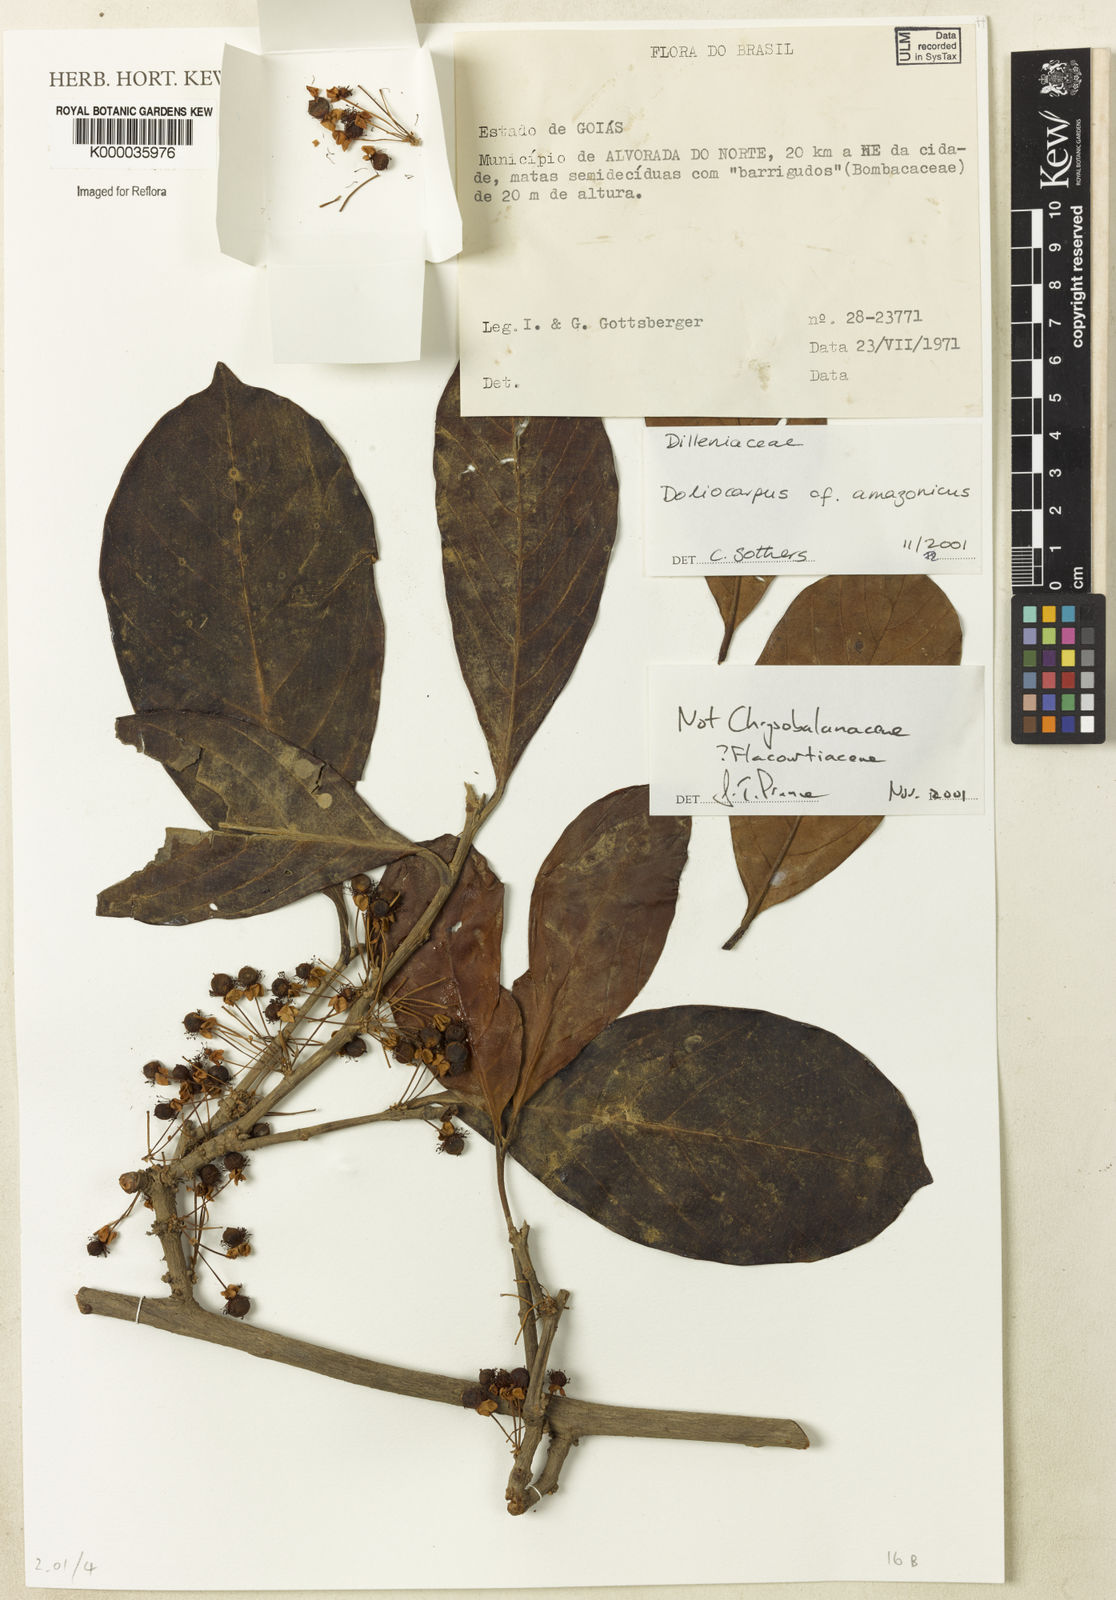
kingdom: Plantae
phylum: Tracheophyta
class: Magnoliopsida
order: Dilleniales
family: Dilleniaceae
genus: Doliocarpus
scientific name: Doliocarpus amazonicus
